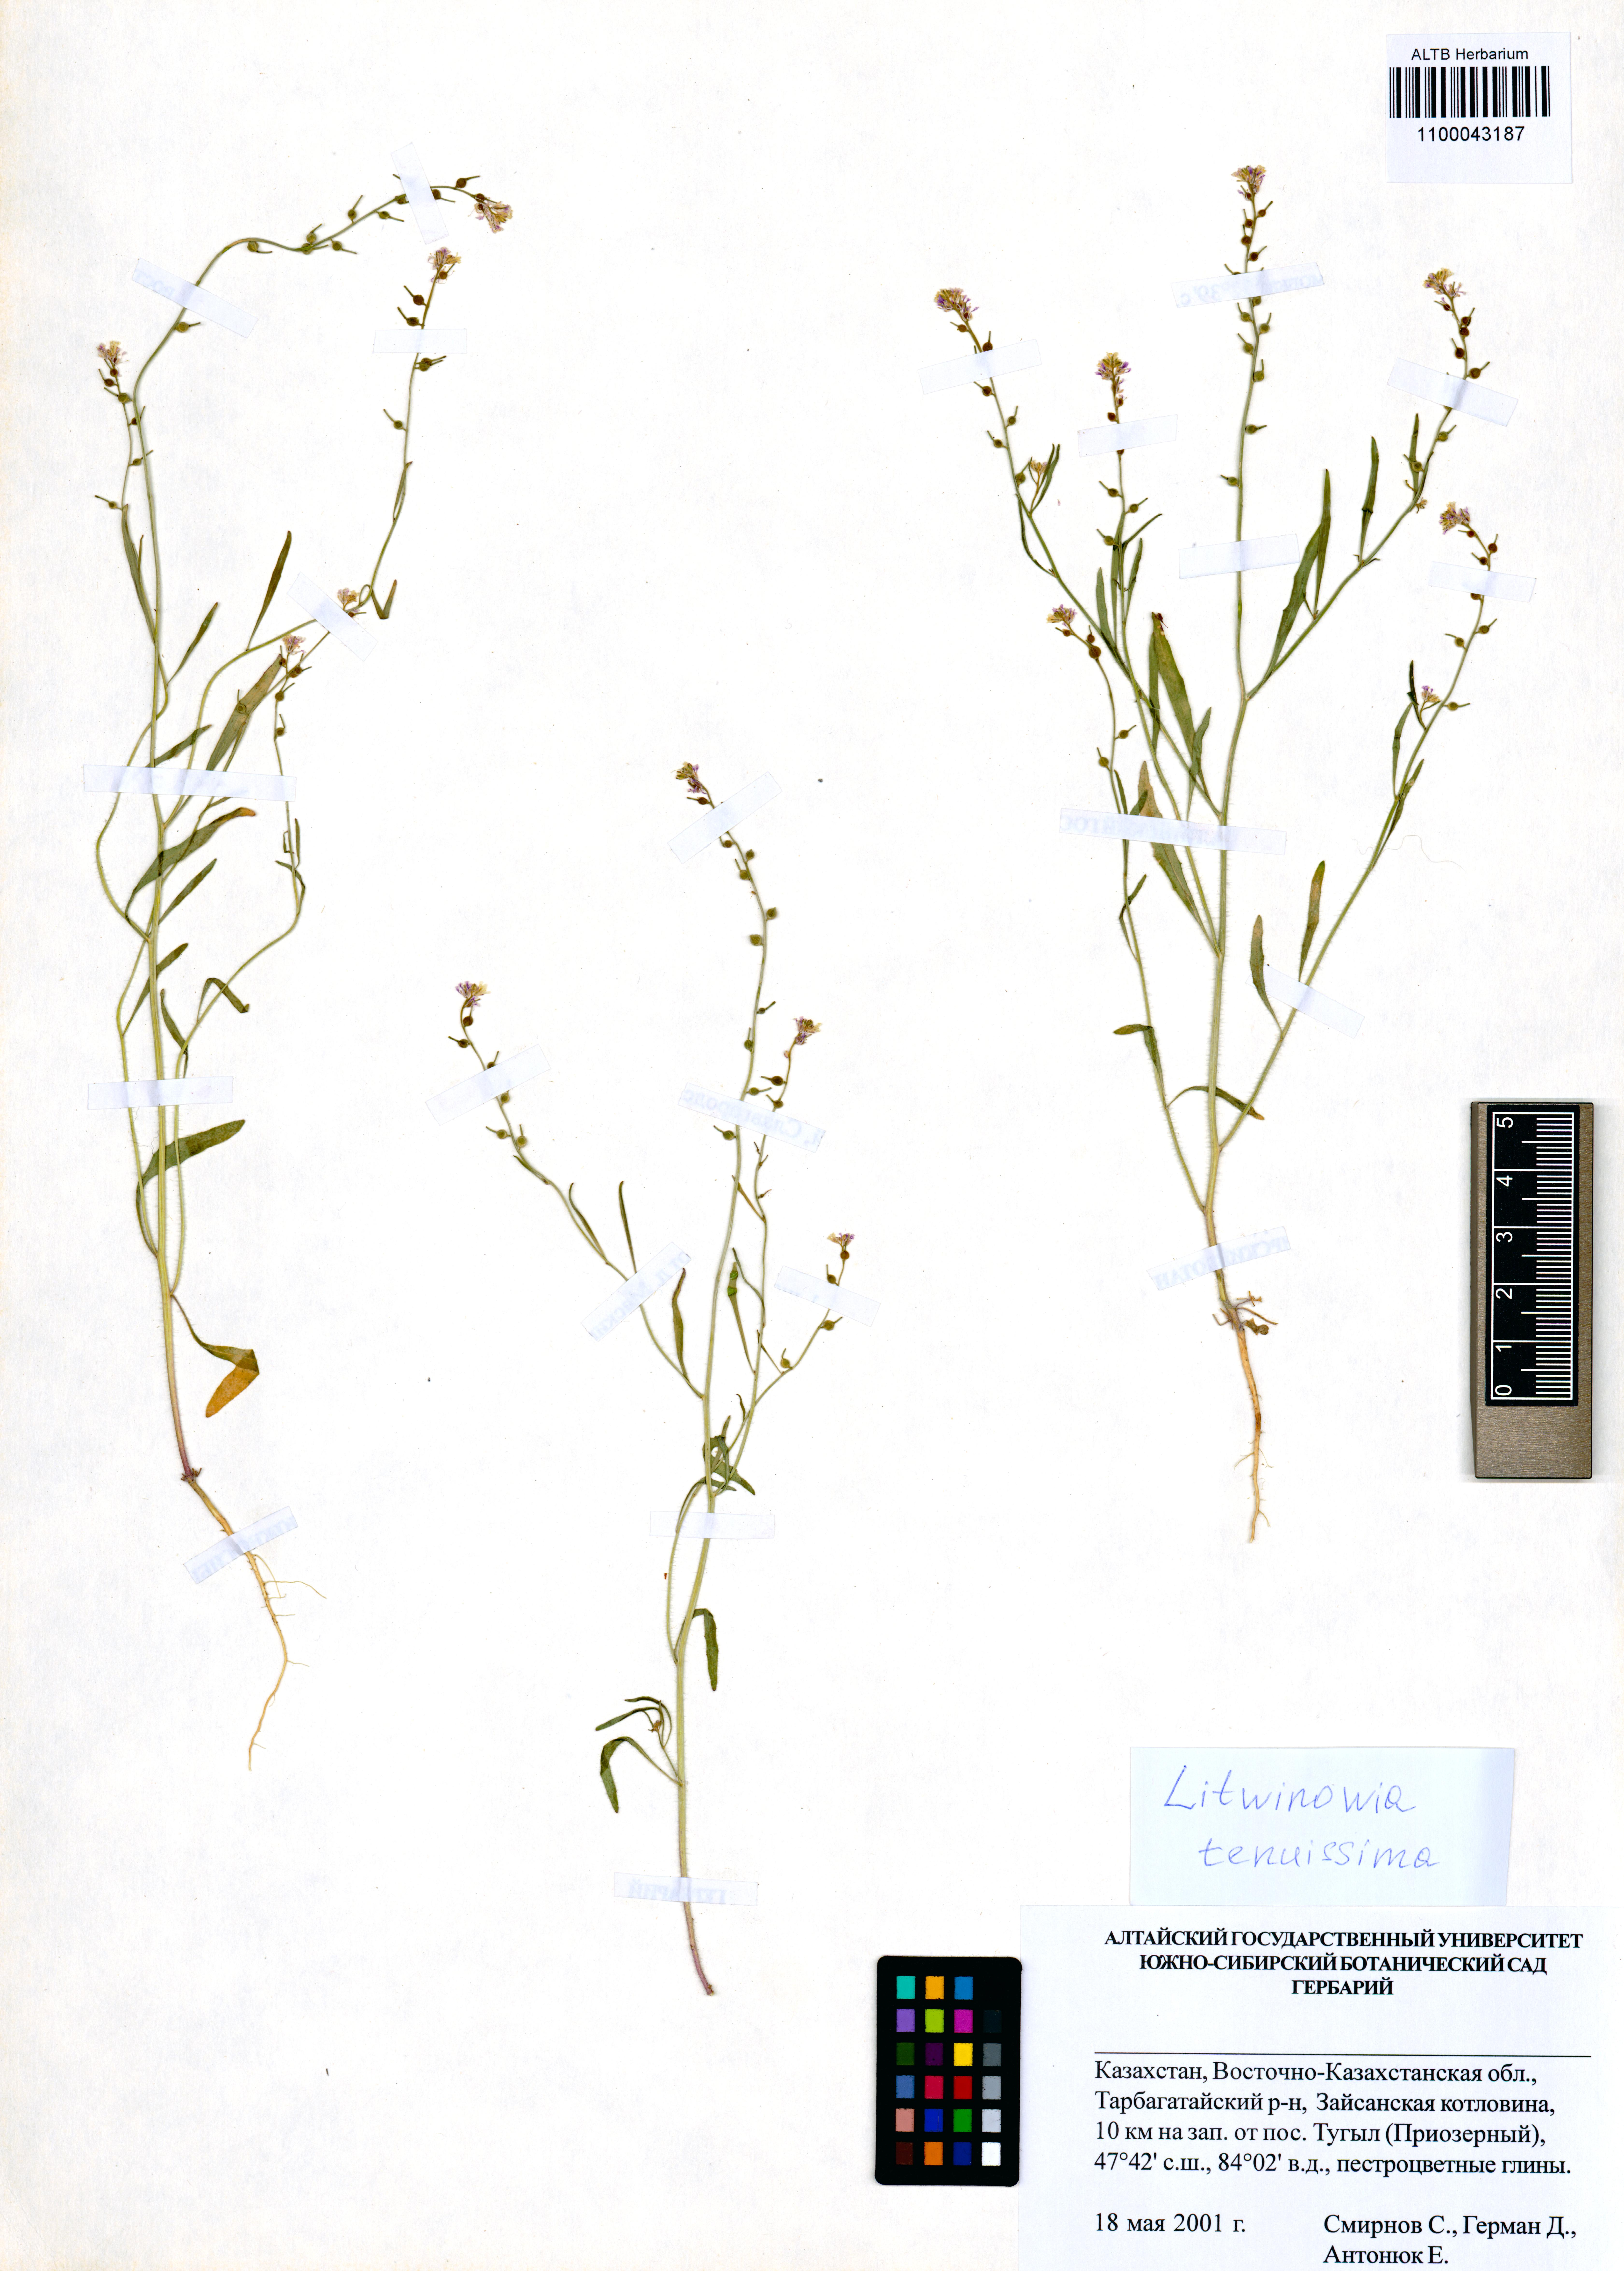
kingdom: Plantae
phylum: Tracheophyta
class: Magnoliopsida
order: Brassicales
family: Brassicaceae
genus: Litwinowia
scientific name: Litwinowia tenuissima
